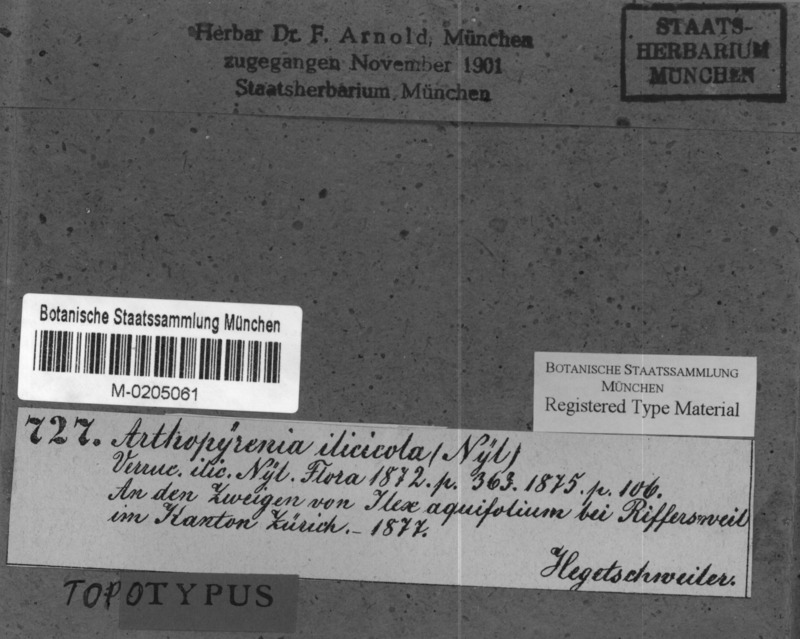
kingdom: Fungi
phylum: Ascomycota
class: Dothideomycetes
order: Pleosporales
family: Arthopyreniaceae
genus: Arthopyrenia
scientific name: Arthopyrenia ilicicola
